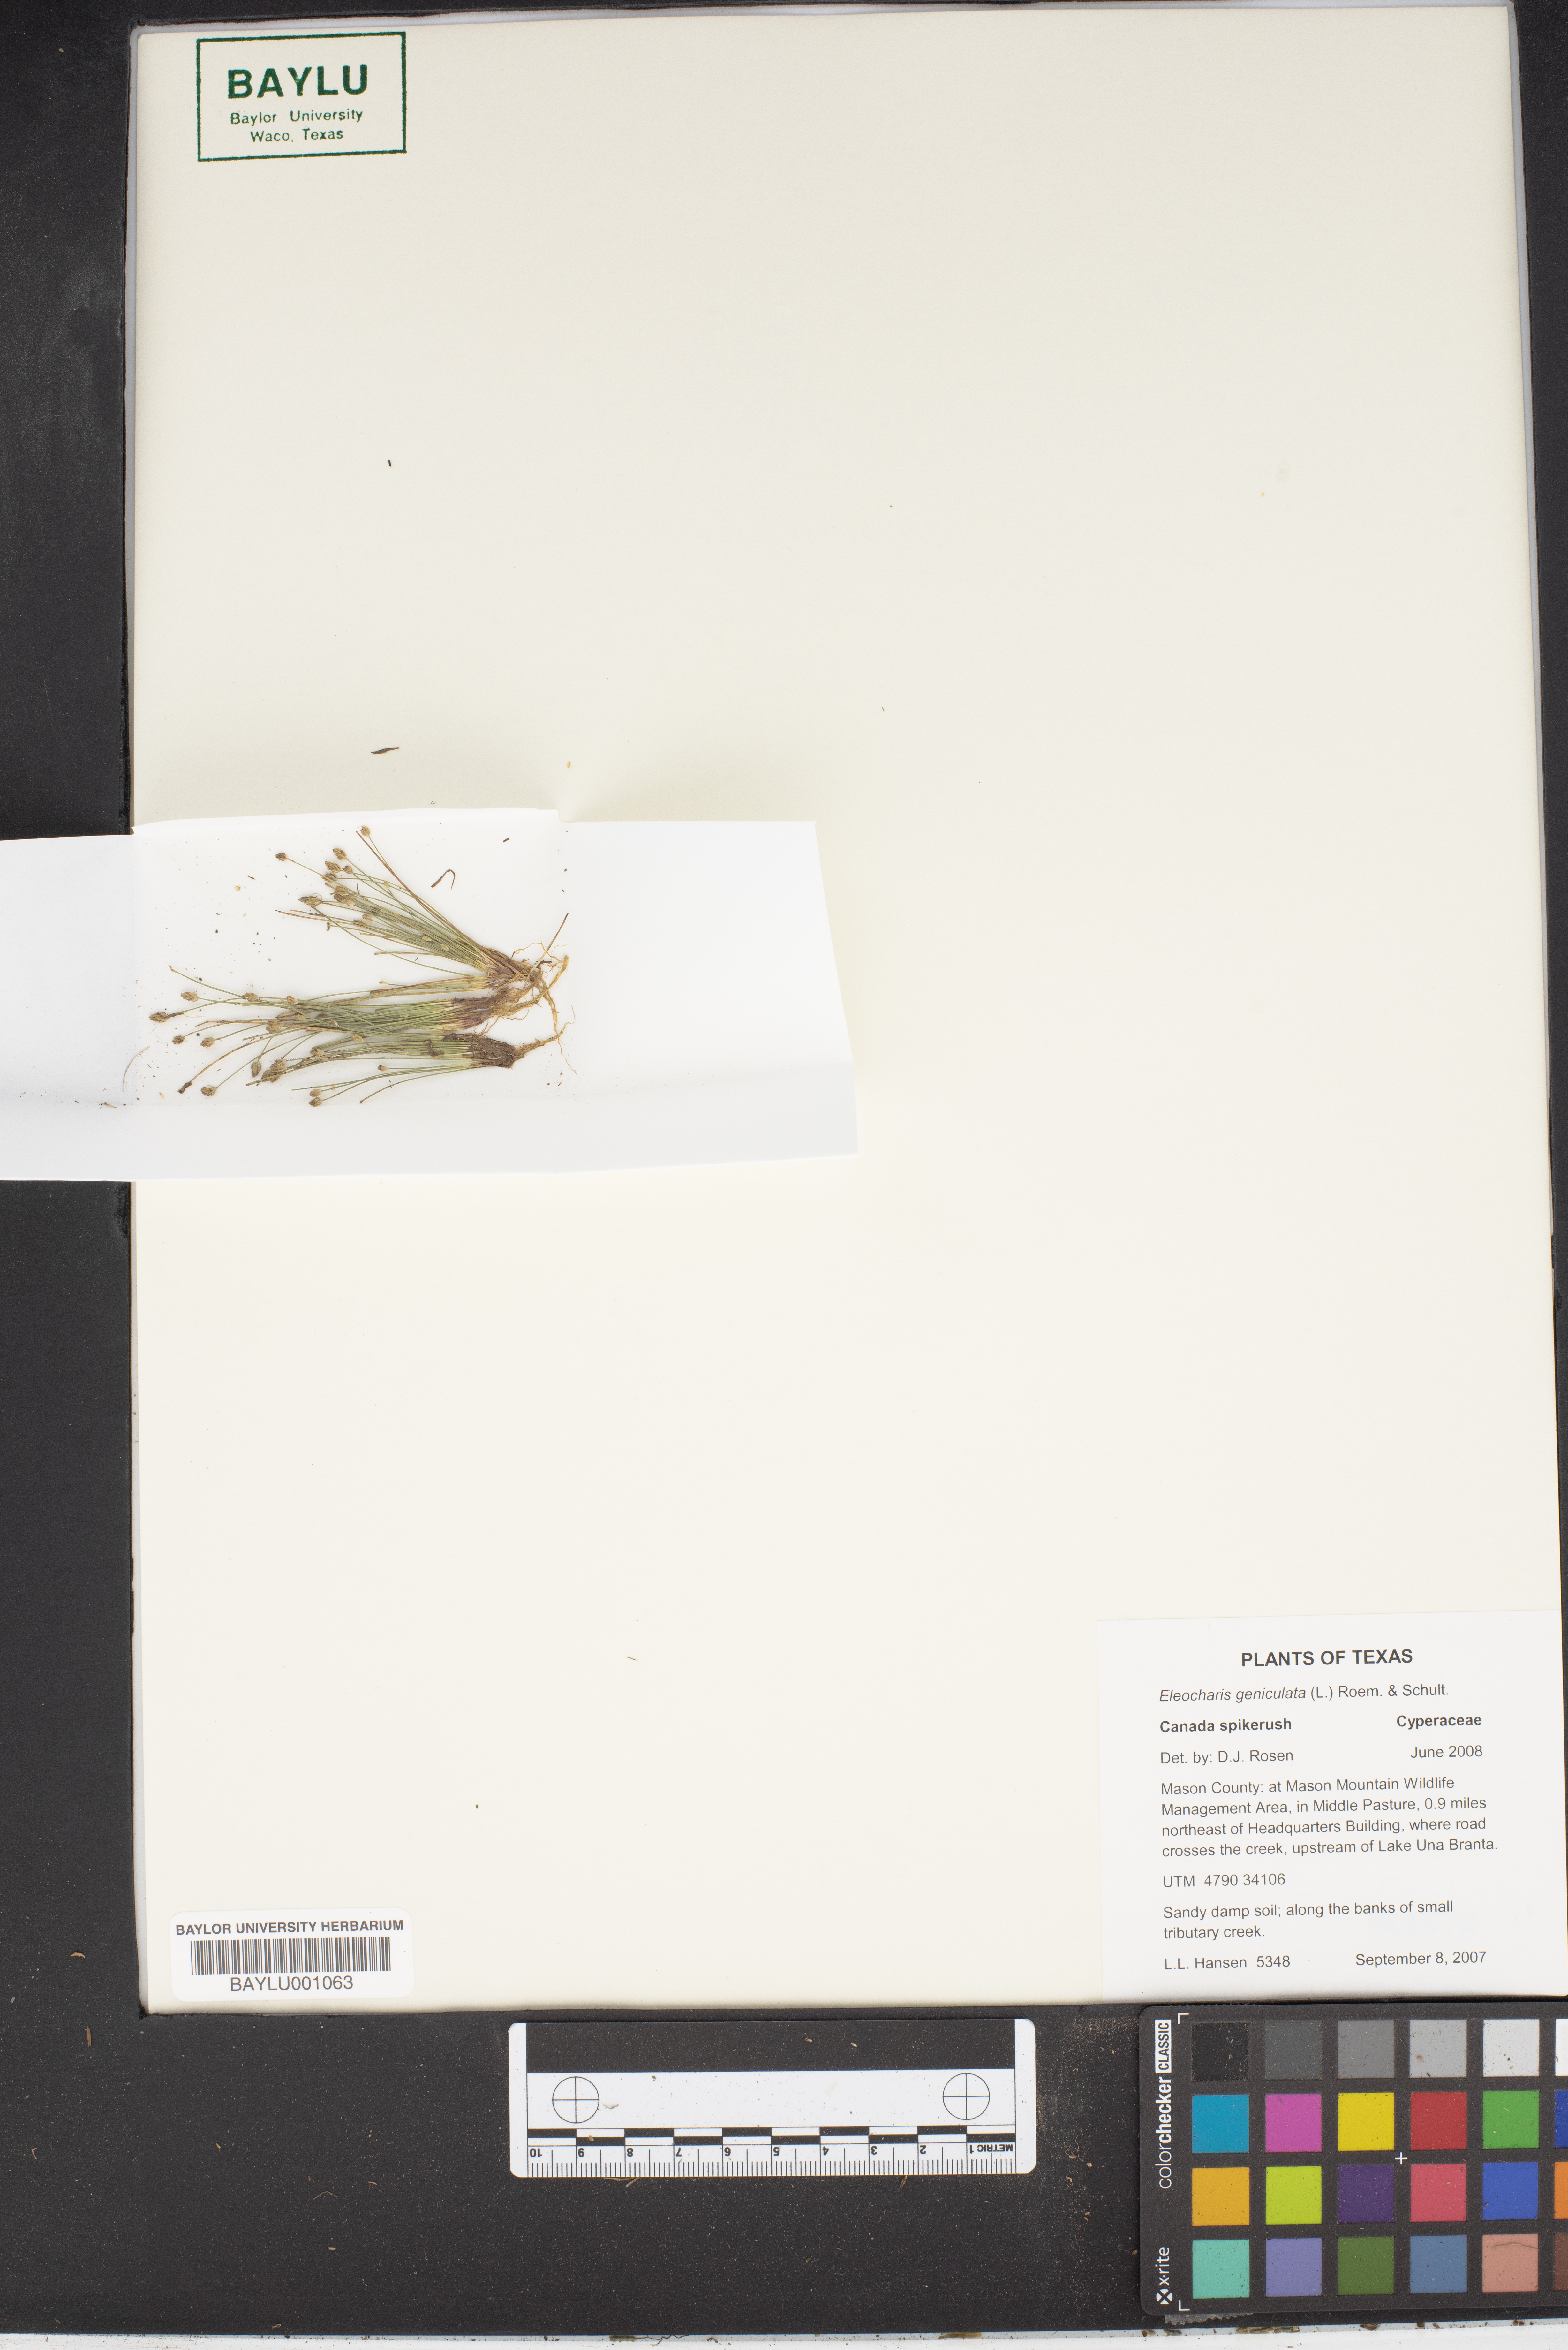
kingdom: Plantae
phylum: Tracheophyta
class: Liliopsida
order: Poales
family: Cyperaceae
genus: Eleocharis
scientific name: Eleocharis geniculata
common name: Canada spikesedge
